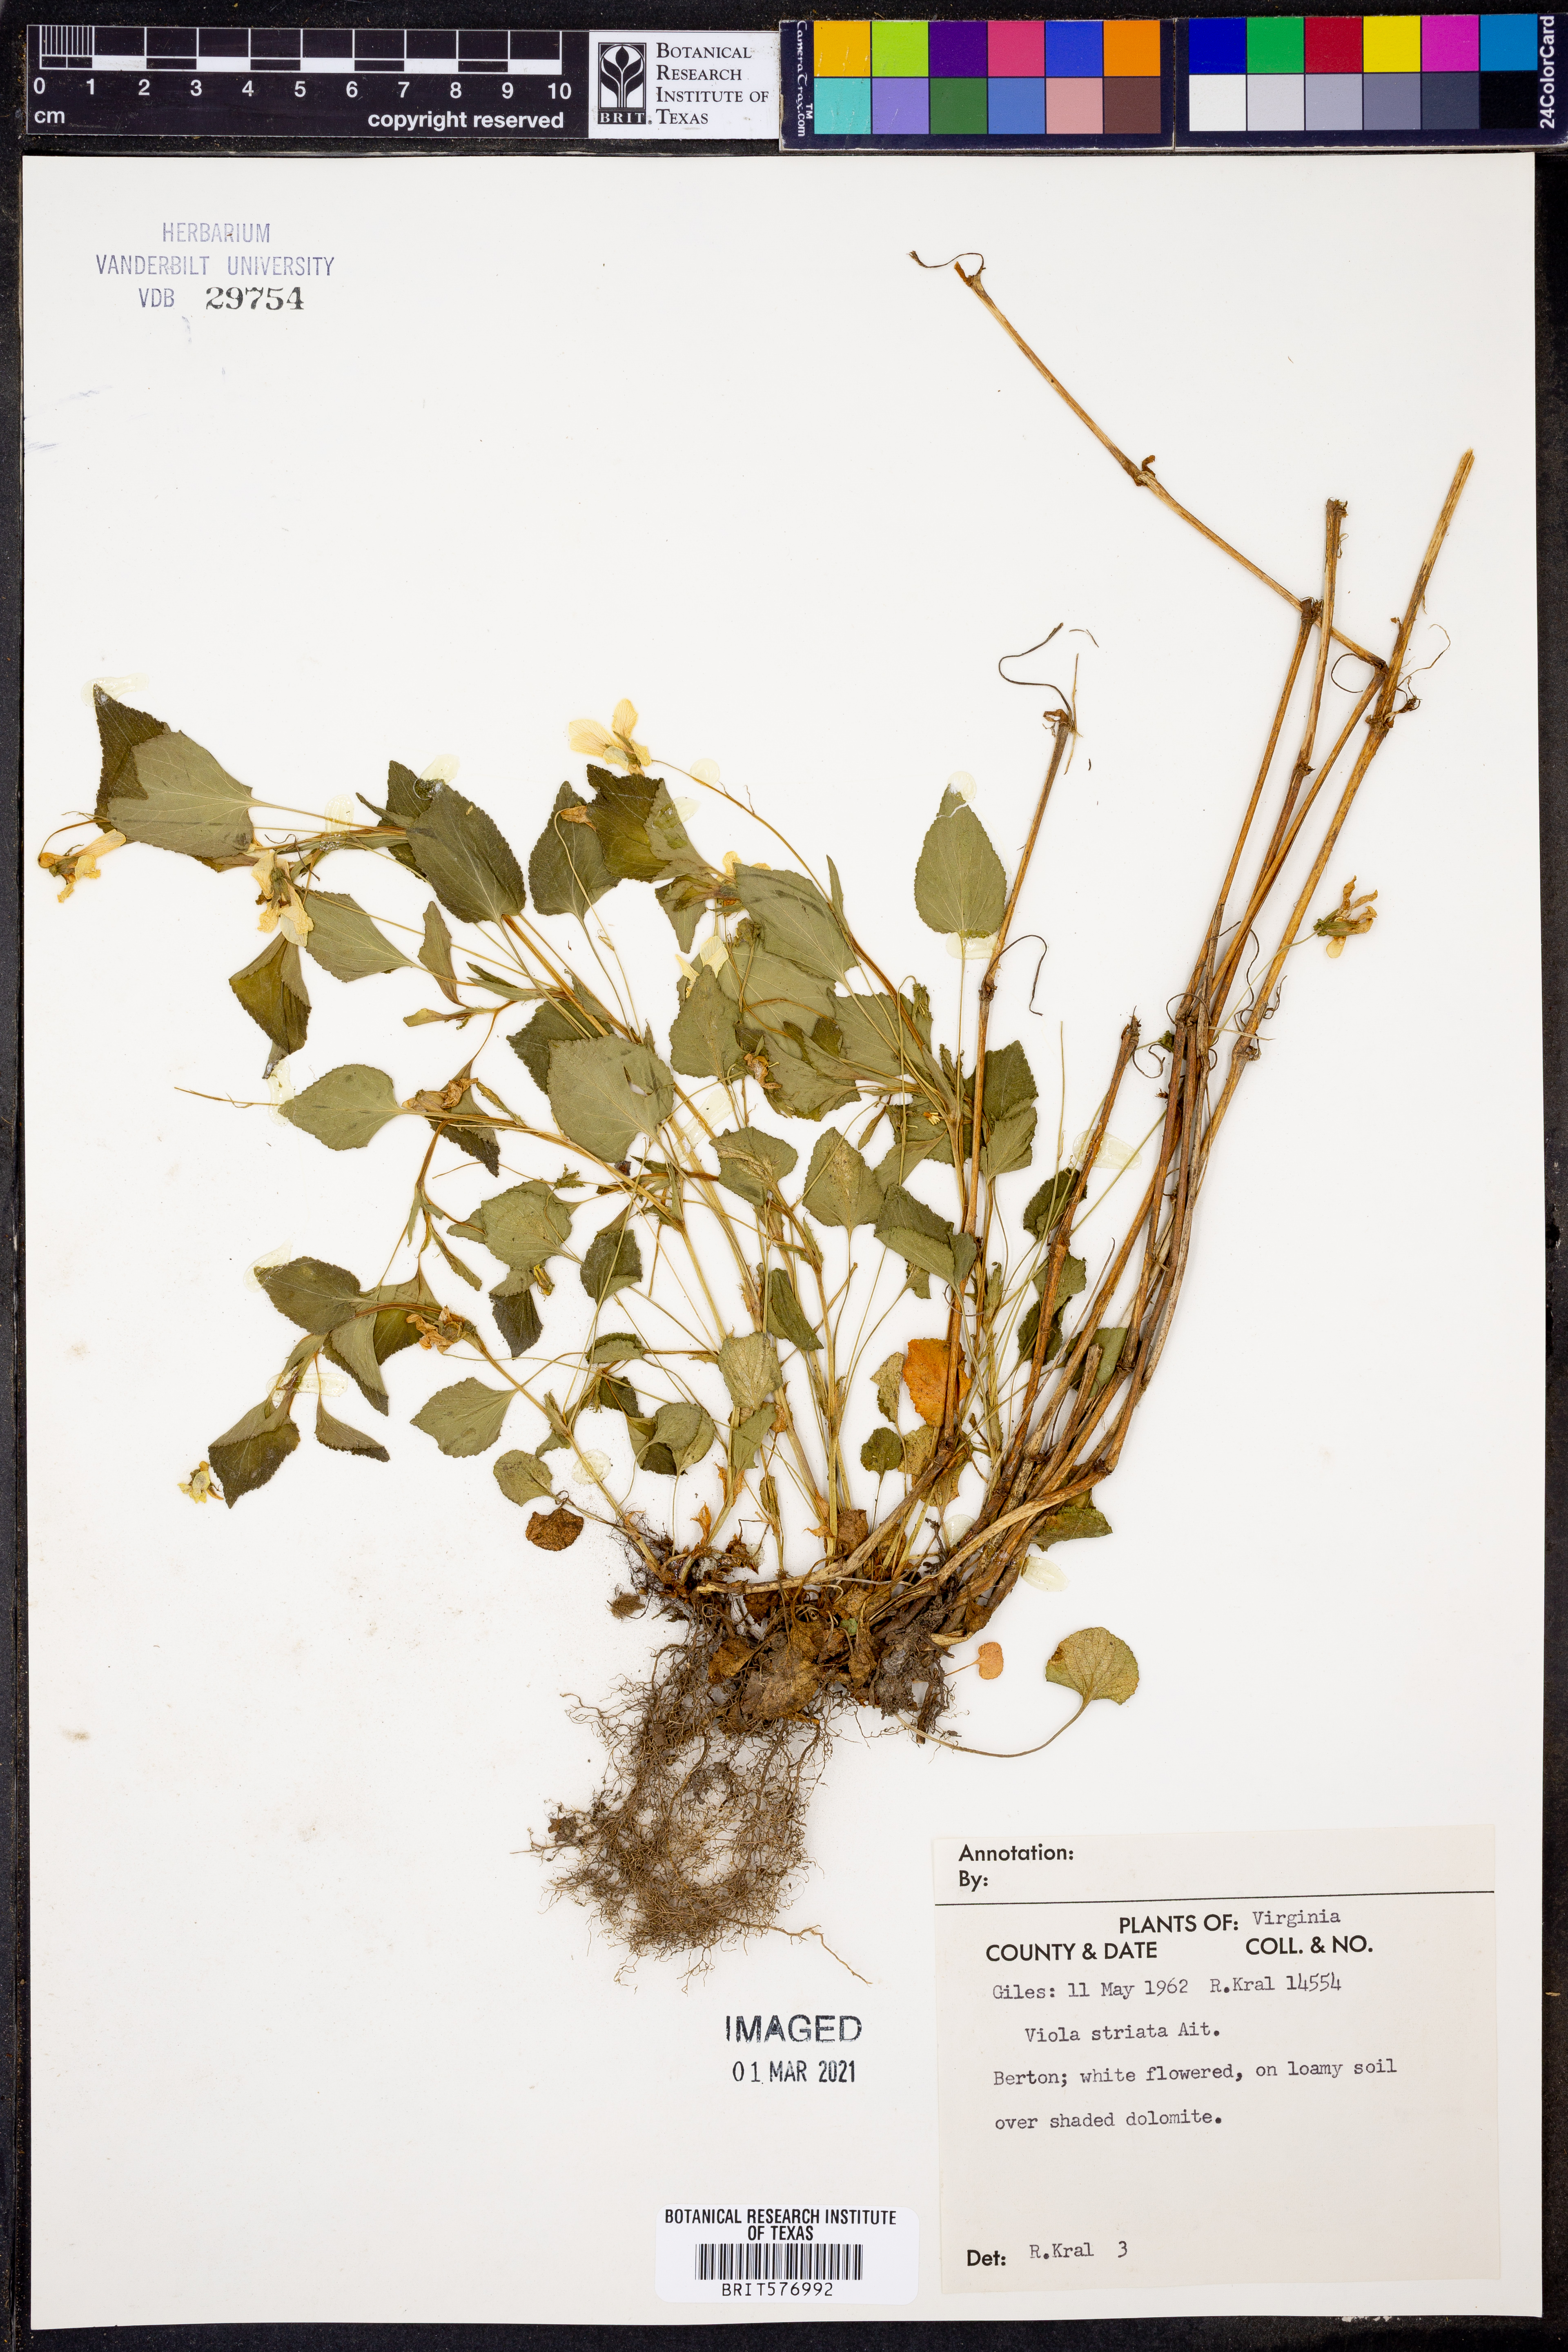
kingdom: Plantae
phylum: Tracheophyta
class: Magnoliopsida
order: Malpighiales
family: Violaceae
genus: Viola
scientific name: Viola striata
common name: Cream violet
